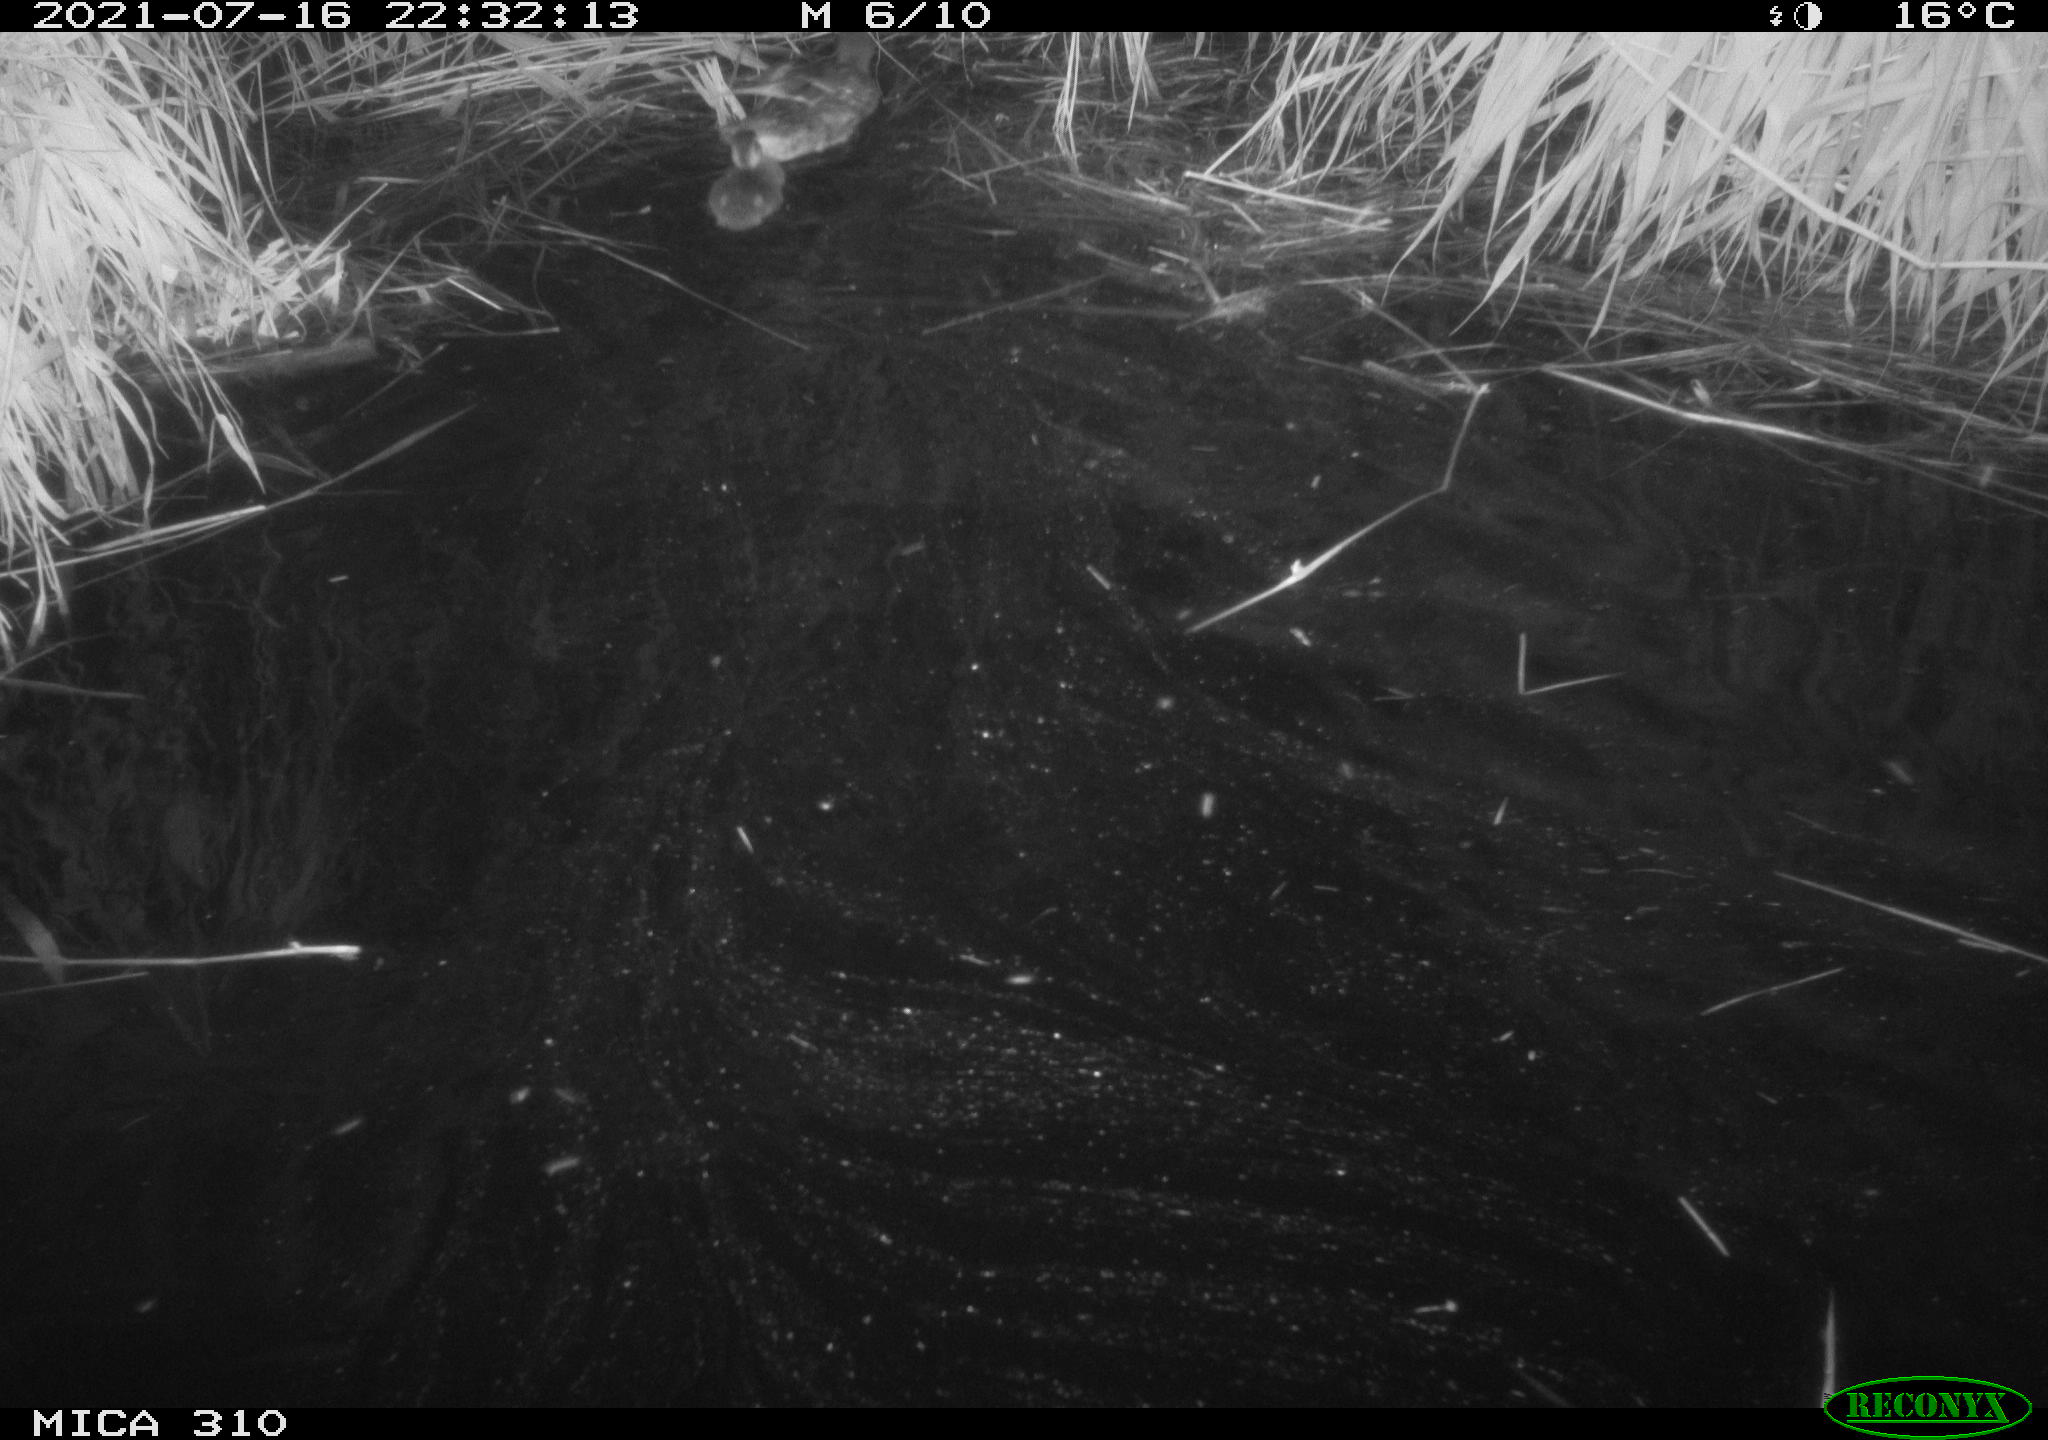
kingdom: Animalia
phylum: Chordata
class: Aves
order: Anseriformes
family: Anatidae
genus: Anas
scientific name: Anas platyrhynchos
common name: Mallard
